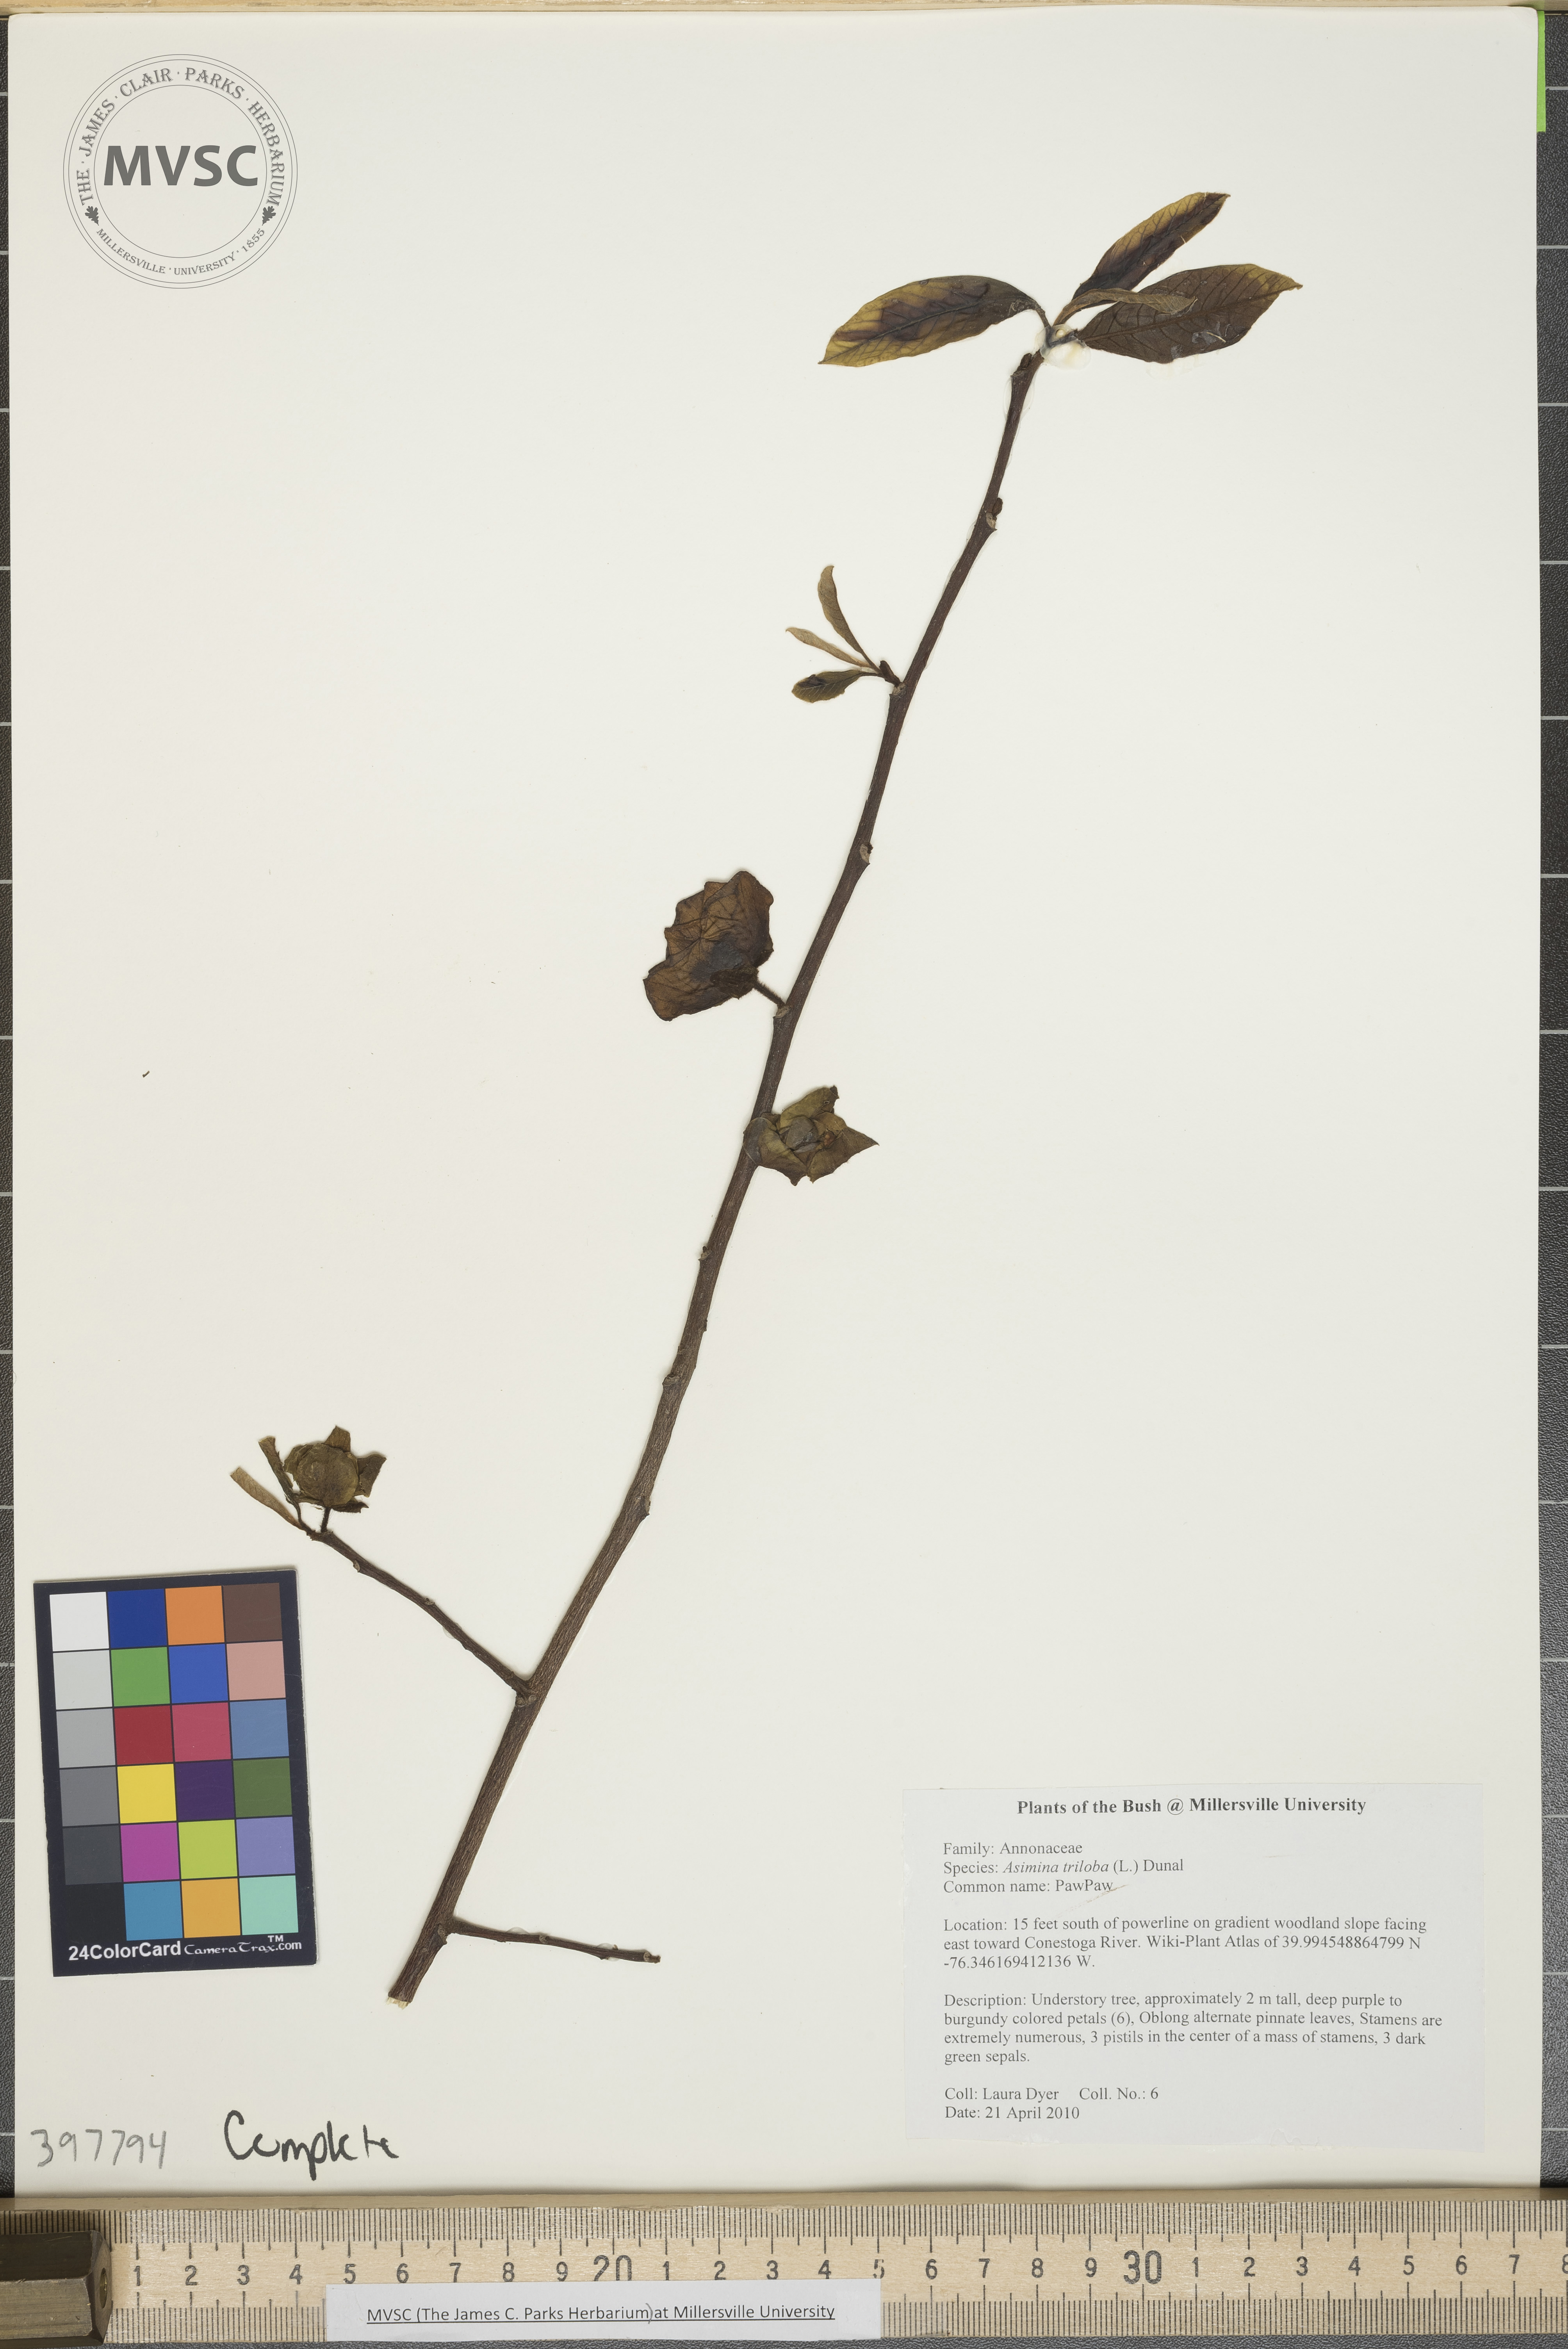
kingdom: Plantae
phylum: Tracheophyta
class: Magnoliopsida
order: Magnoliales
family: Annonaceae
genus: Asimina
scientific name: Asimina triloba
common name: Pawpaw
